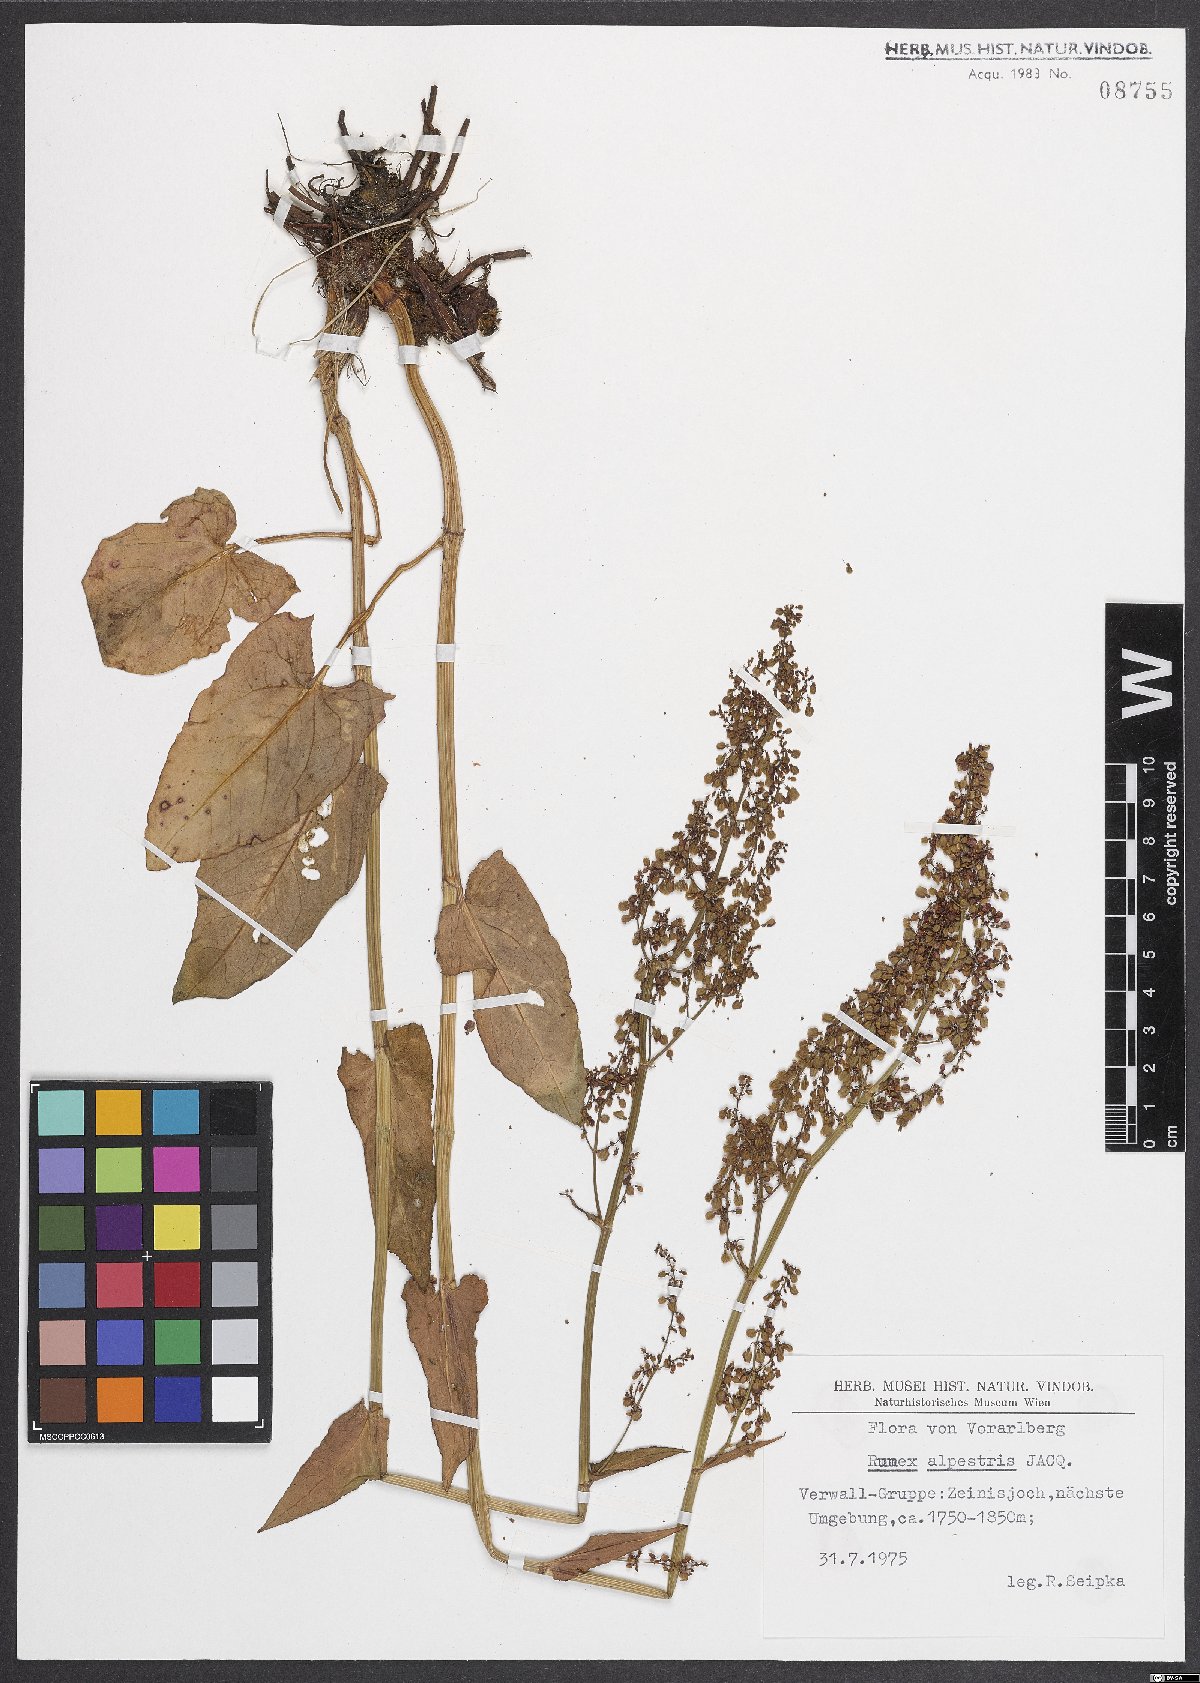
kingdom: Plantae
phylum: Tracheophyta
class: Magnoliopsida
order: Caryophyllales
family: Polygonaceae
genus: Rumex
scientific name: Rumex scutatus
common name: French sorrel
